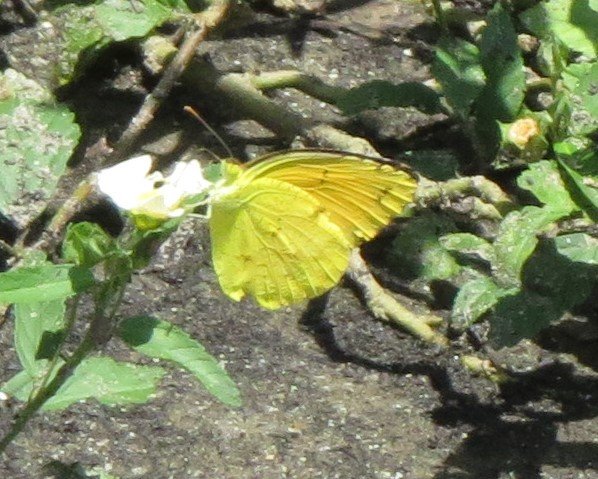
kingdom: Animalia
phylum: Arthropoda
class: Insecta
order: Lepidoptera
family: Pieridae
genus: Abaeis
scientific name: Abaeis nicippe
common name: Sleepy Orange
